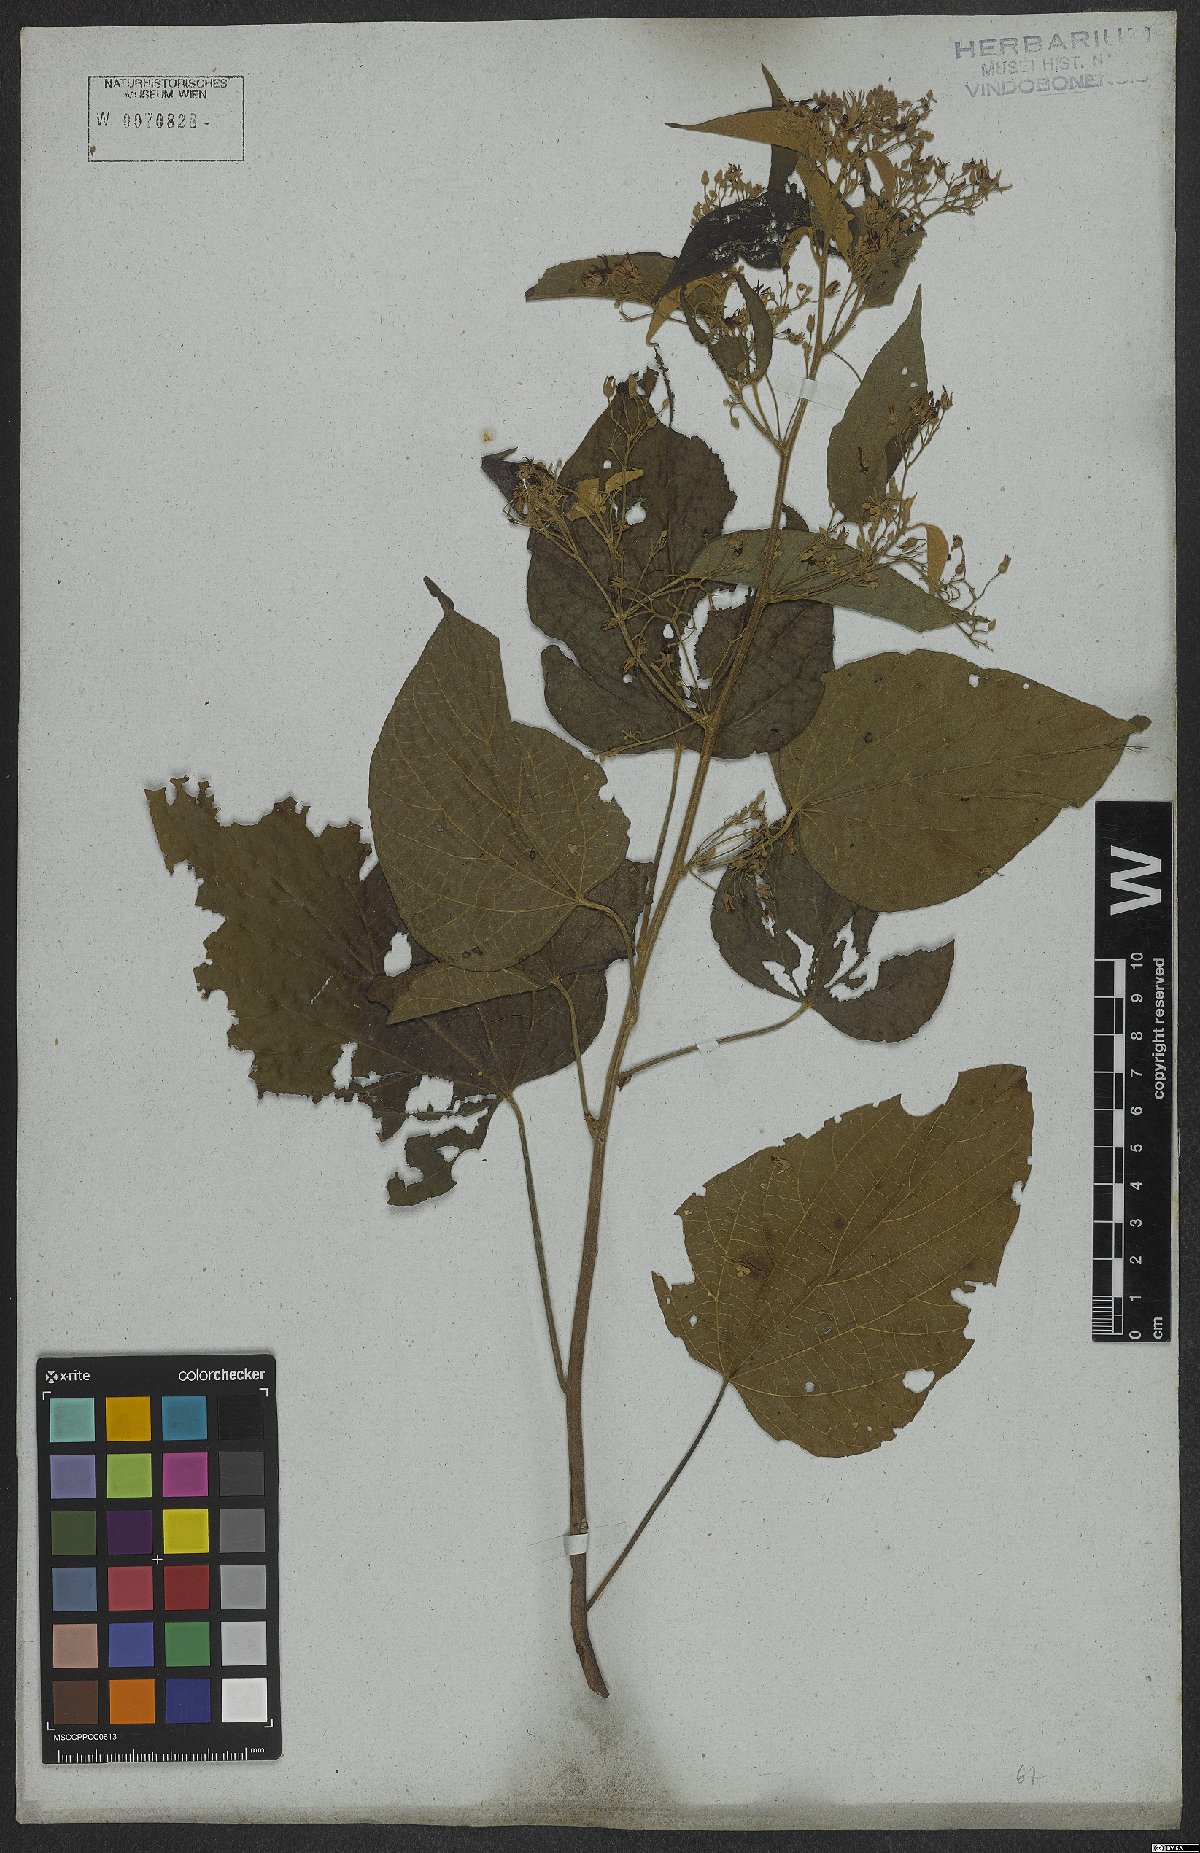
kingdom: Plantae
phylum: Tracheophyta
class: Magnoliopsida
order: Malvales
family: Malvaceae
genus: Byttneria
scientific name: Byttneria catalpifolia
